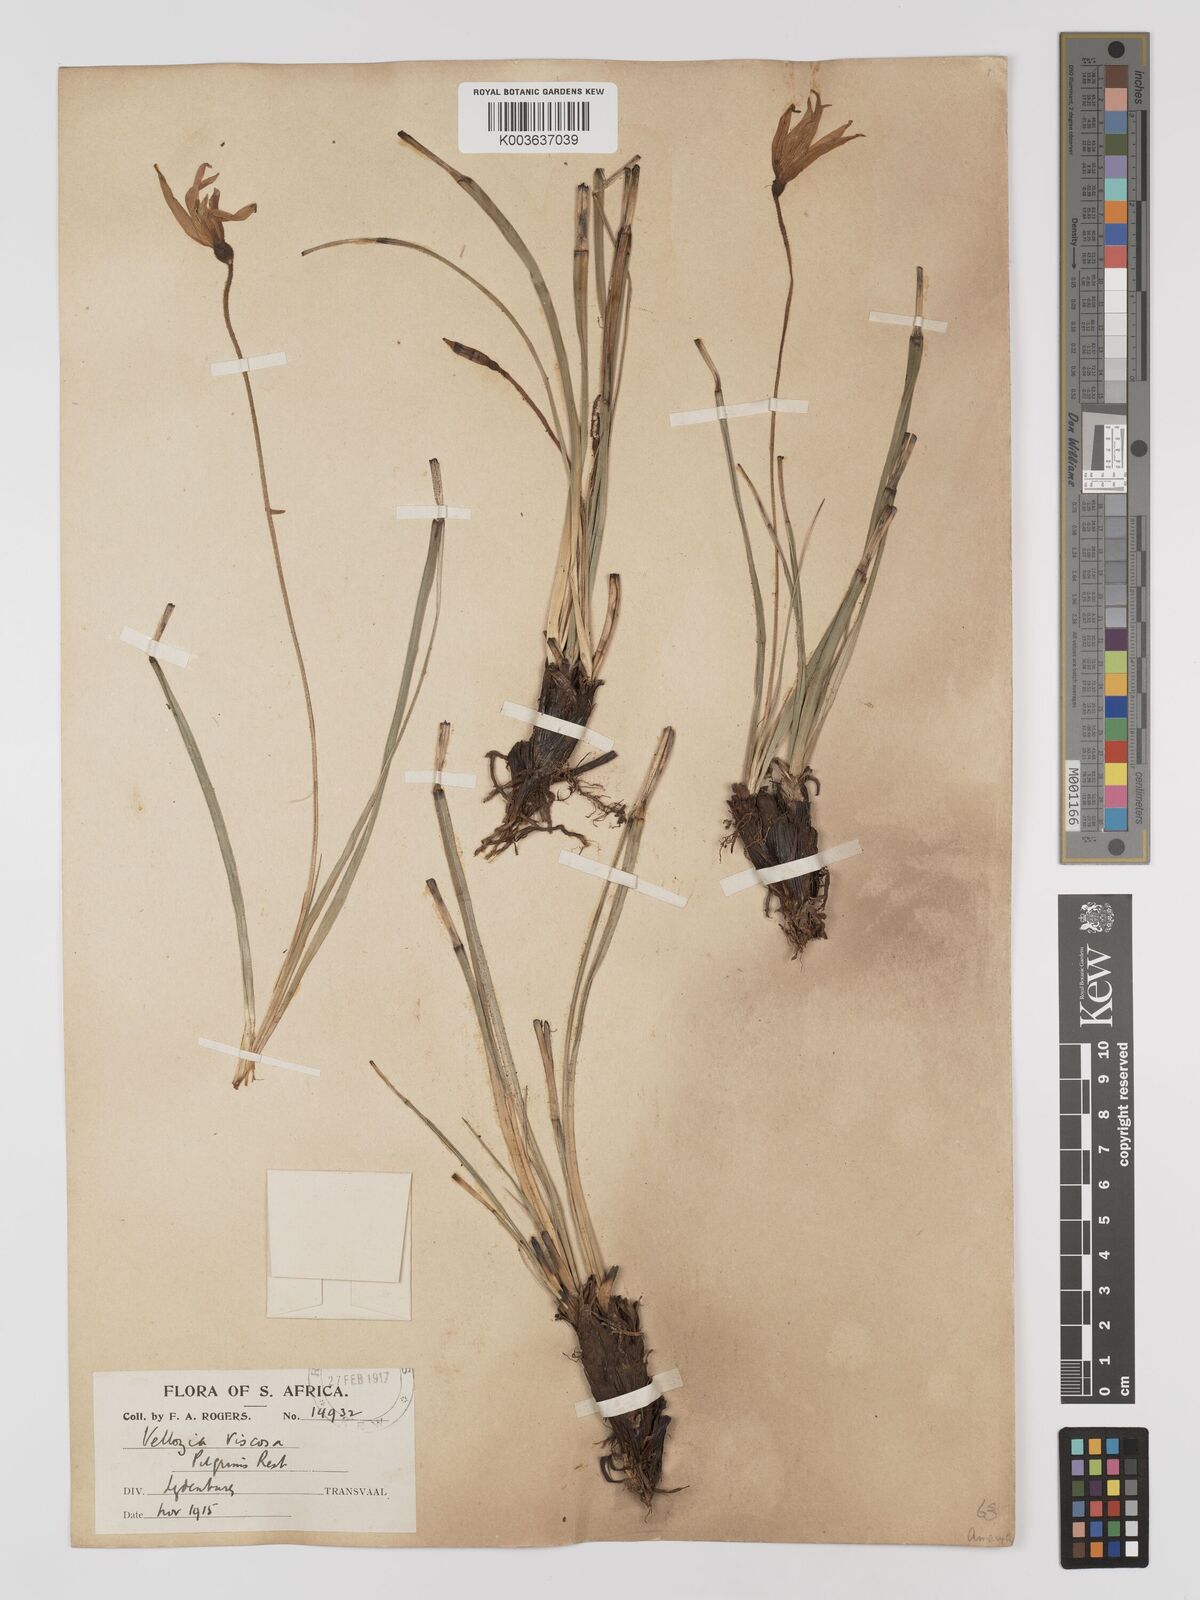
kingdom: Plantae
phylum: Tracheophyta
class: Liliopsida
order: Pandanales
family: Velloziaceae
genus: Xerophyta
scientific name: Xerophyta viscosa
